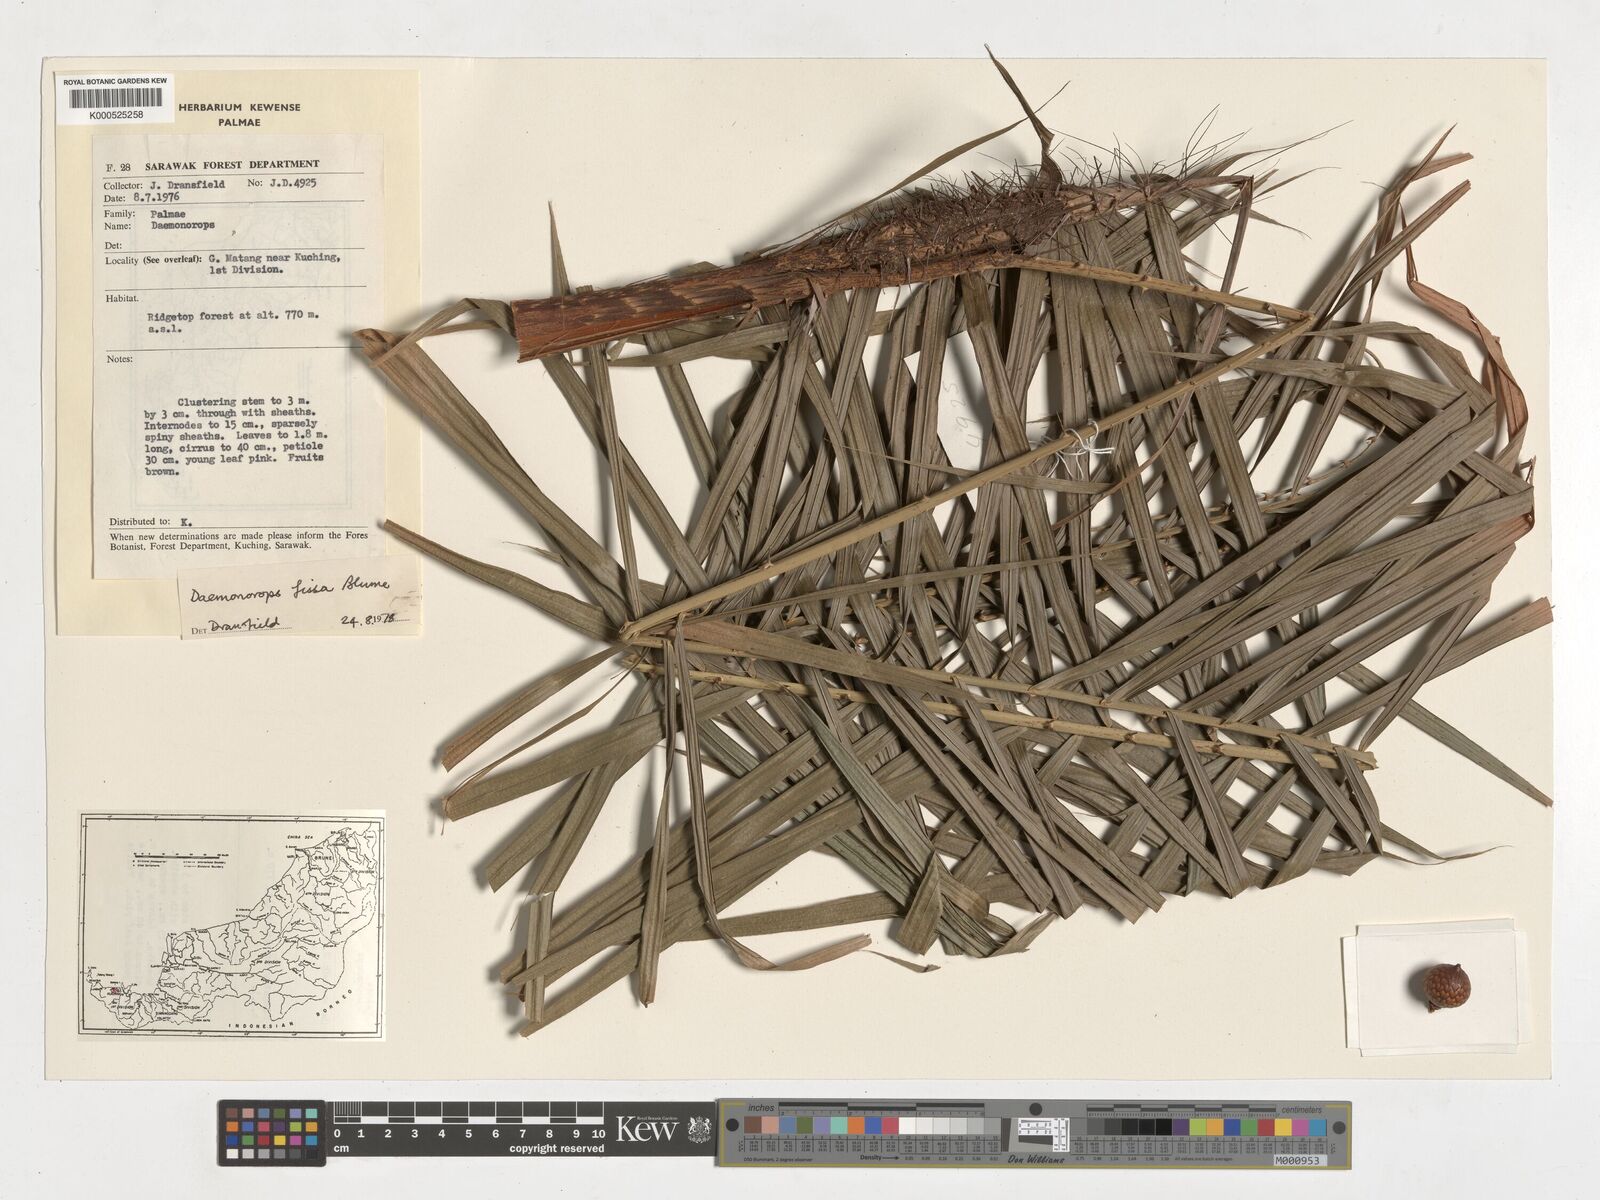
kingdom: Plantae
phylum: Tracheophyta
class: Liliopsida
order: Arecales
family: Arecaceae
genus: Calamus
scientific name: Calamus melanochaetes
